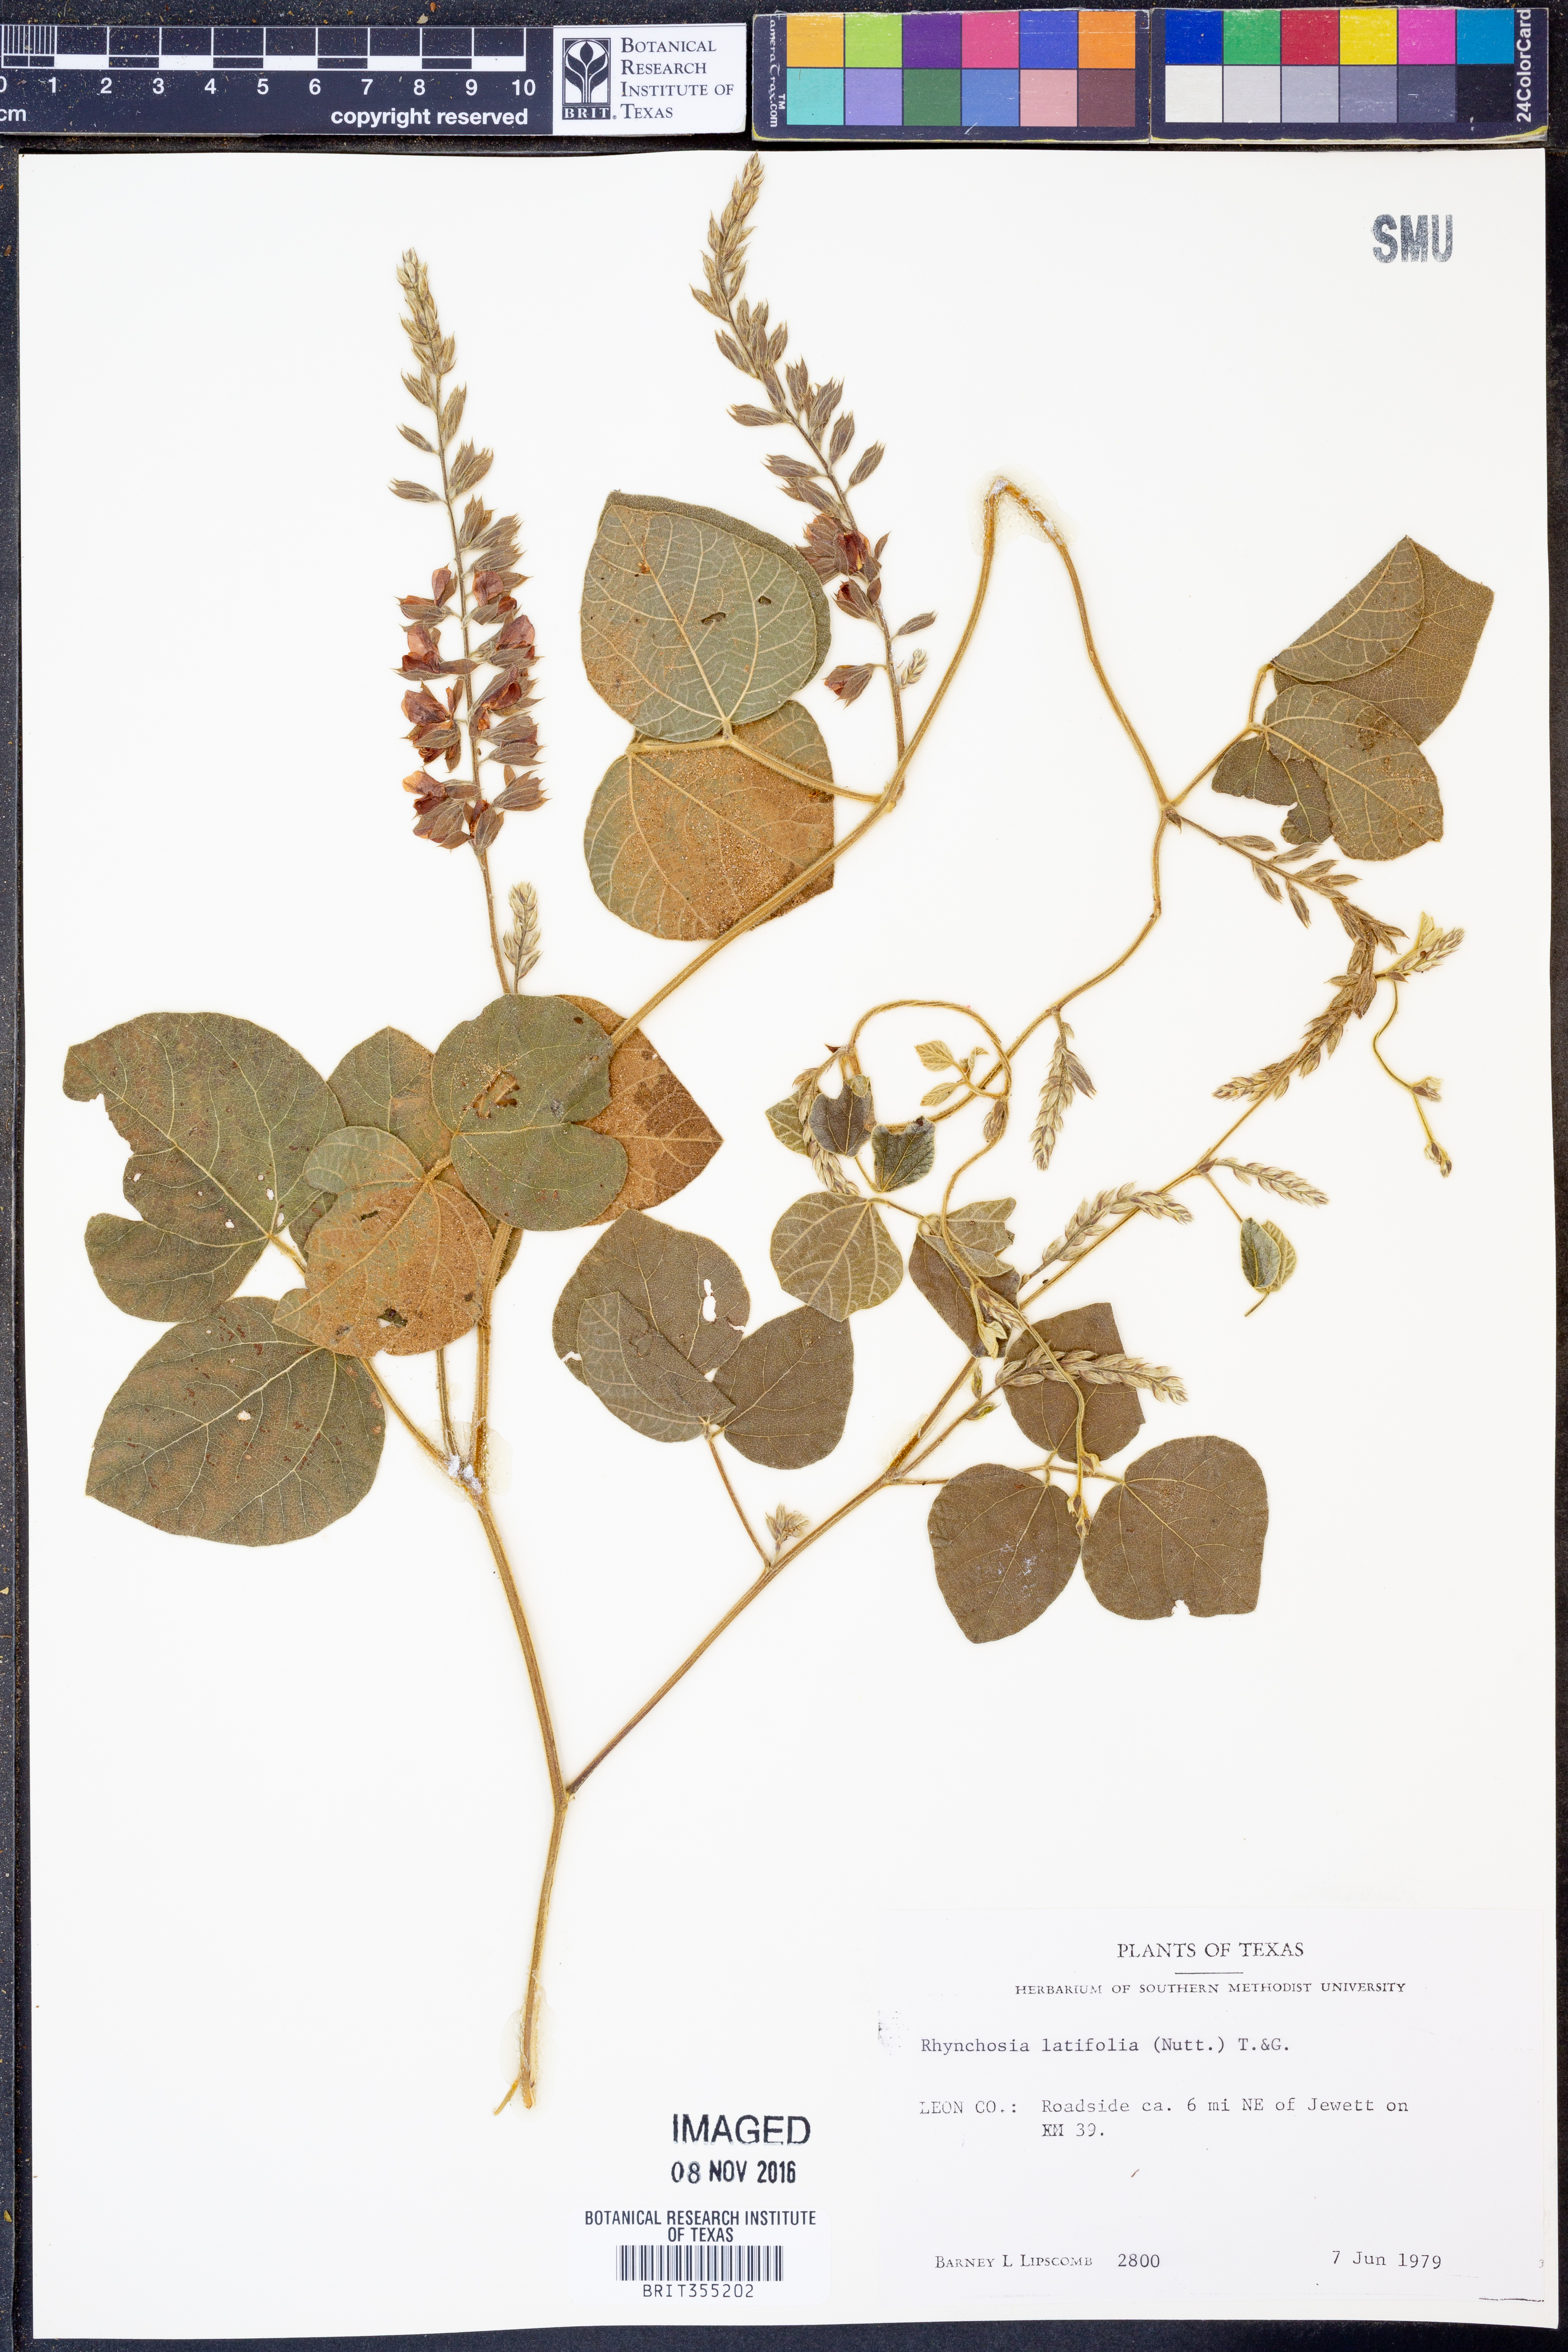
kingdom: Plantae
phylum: Tracheophyta
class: Magnoliopsida
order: Fabales
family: Fabaceae
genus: Rhynchosia
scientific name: Rhynchosia latifolia
